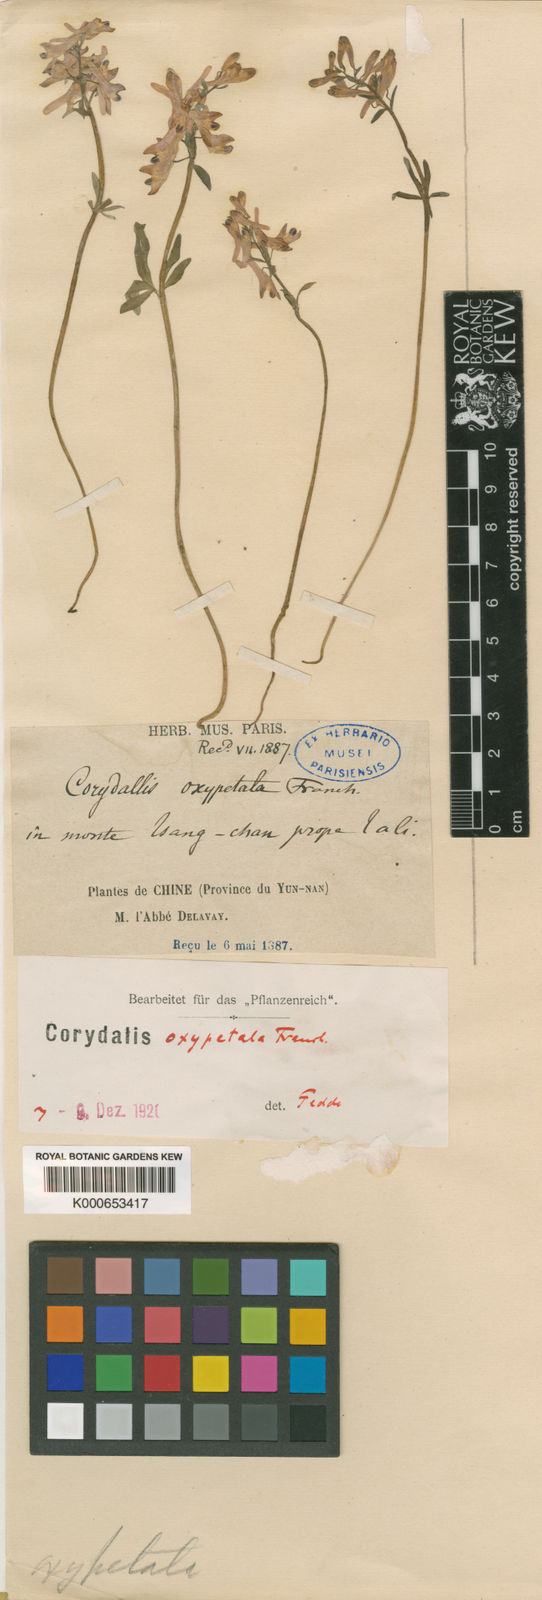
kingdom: Plantae
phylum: Tracheophyta
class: Magnoliopsida
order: Ranunculales
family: Papaveraceae
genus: Corydalis
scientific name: Corydalis oxypetala
